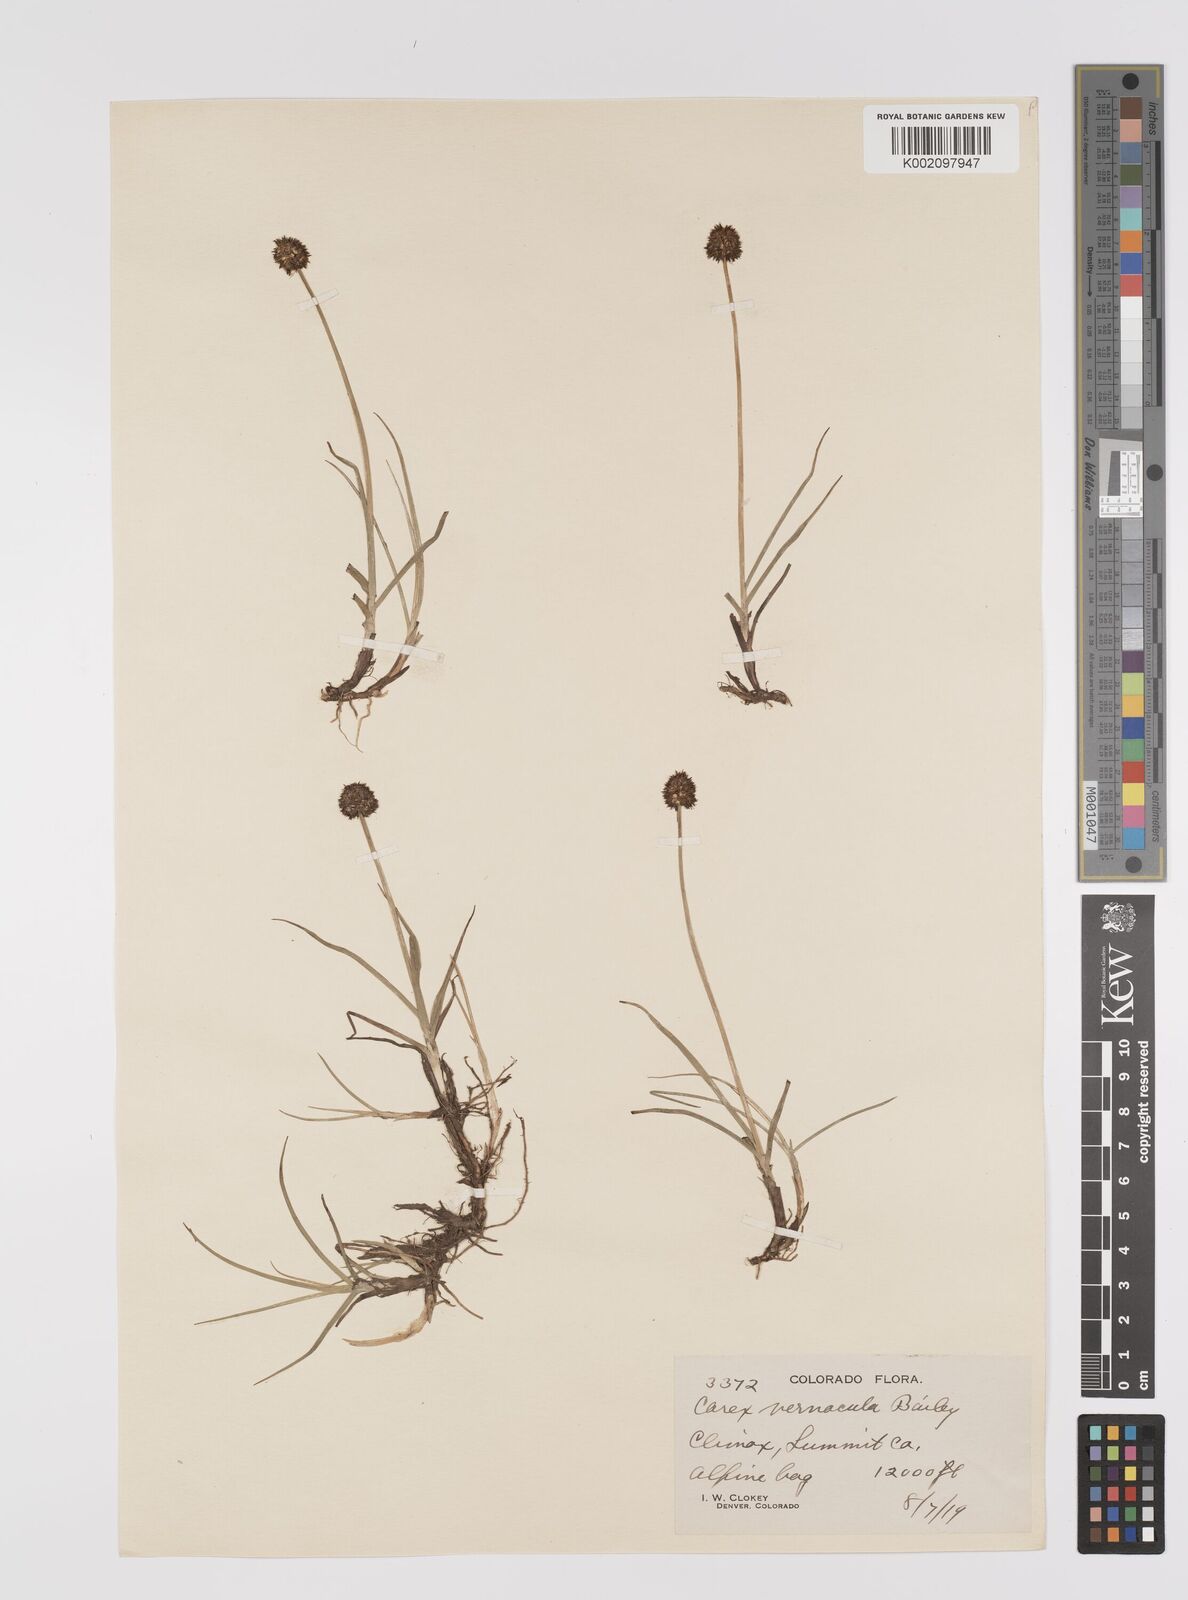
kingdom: Plantae
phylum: Tracheophyta
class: Liliopsida
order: Poales
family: Cyperaceae
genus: Carex
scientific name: Carex vernacula
